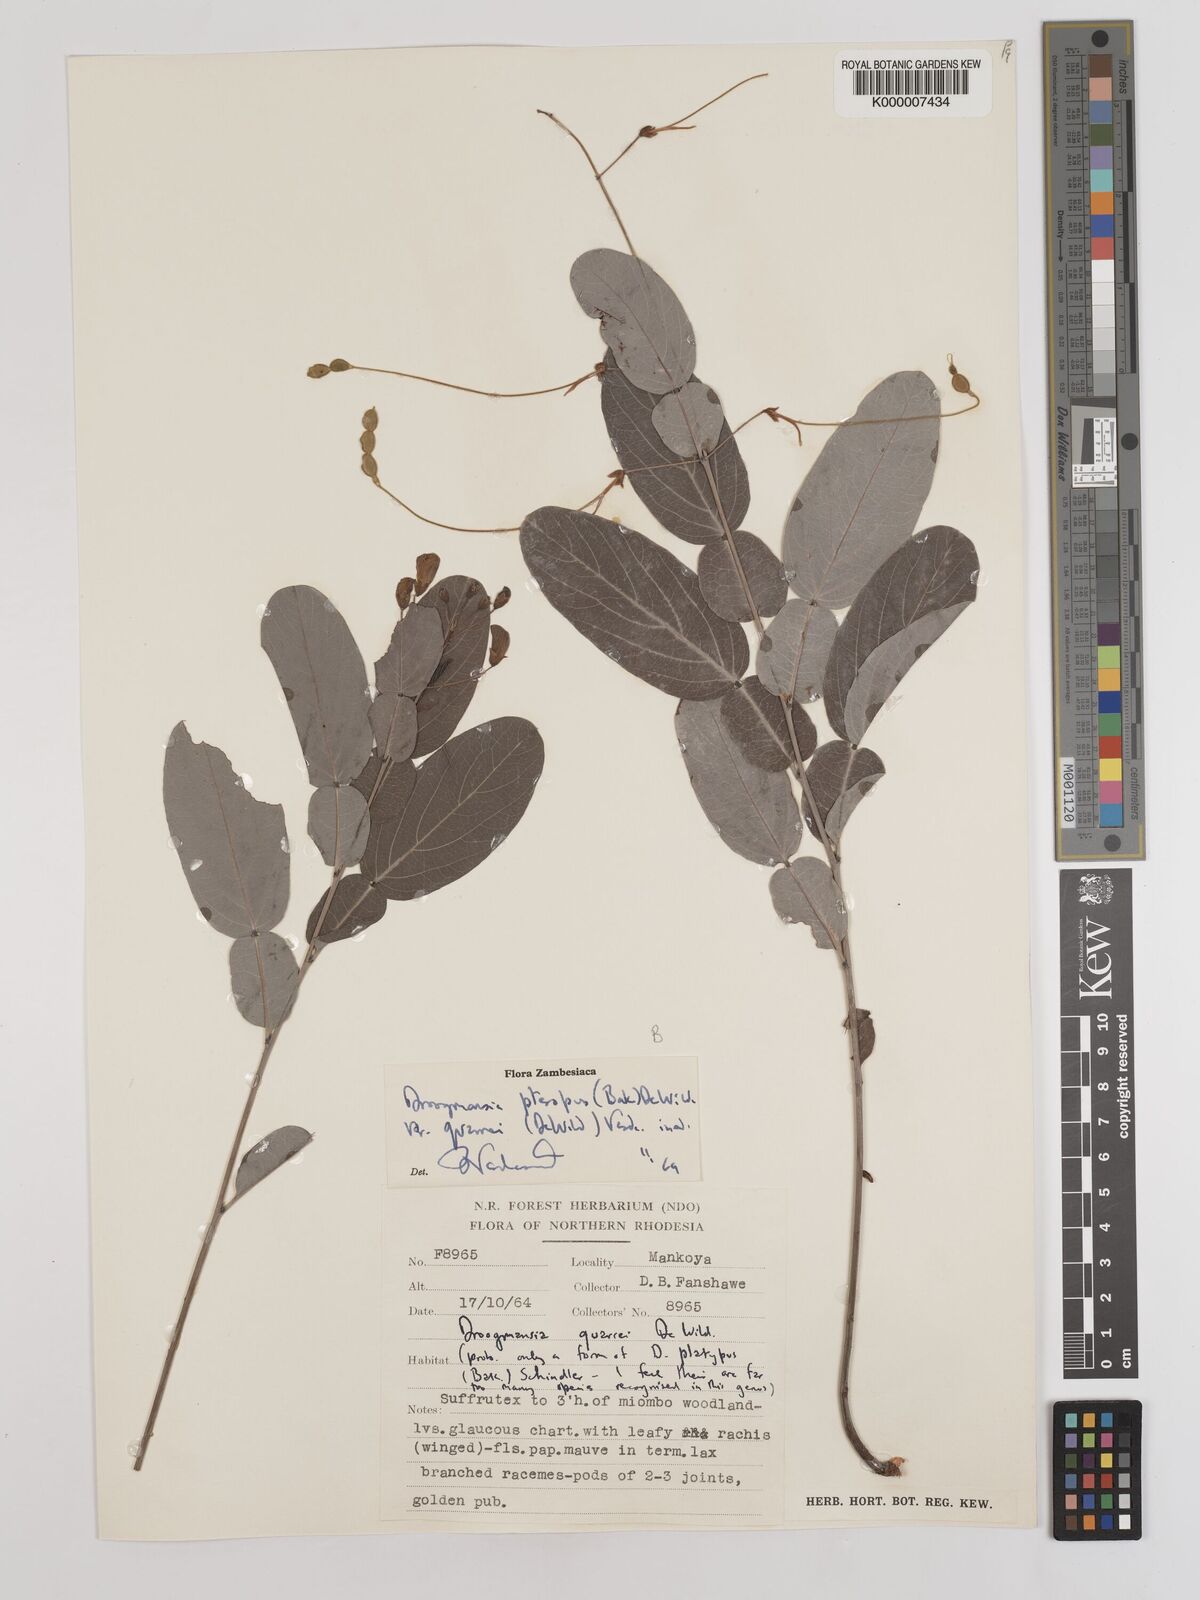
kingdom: Plantae
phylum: Tracheophyta
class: Magnoliopsida
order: Fabales
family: Fabaceae
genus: Droogmansia
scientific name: Droogmansia pteropus
